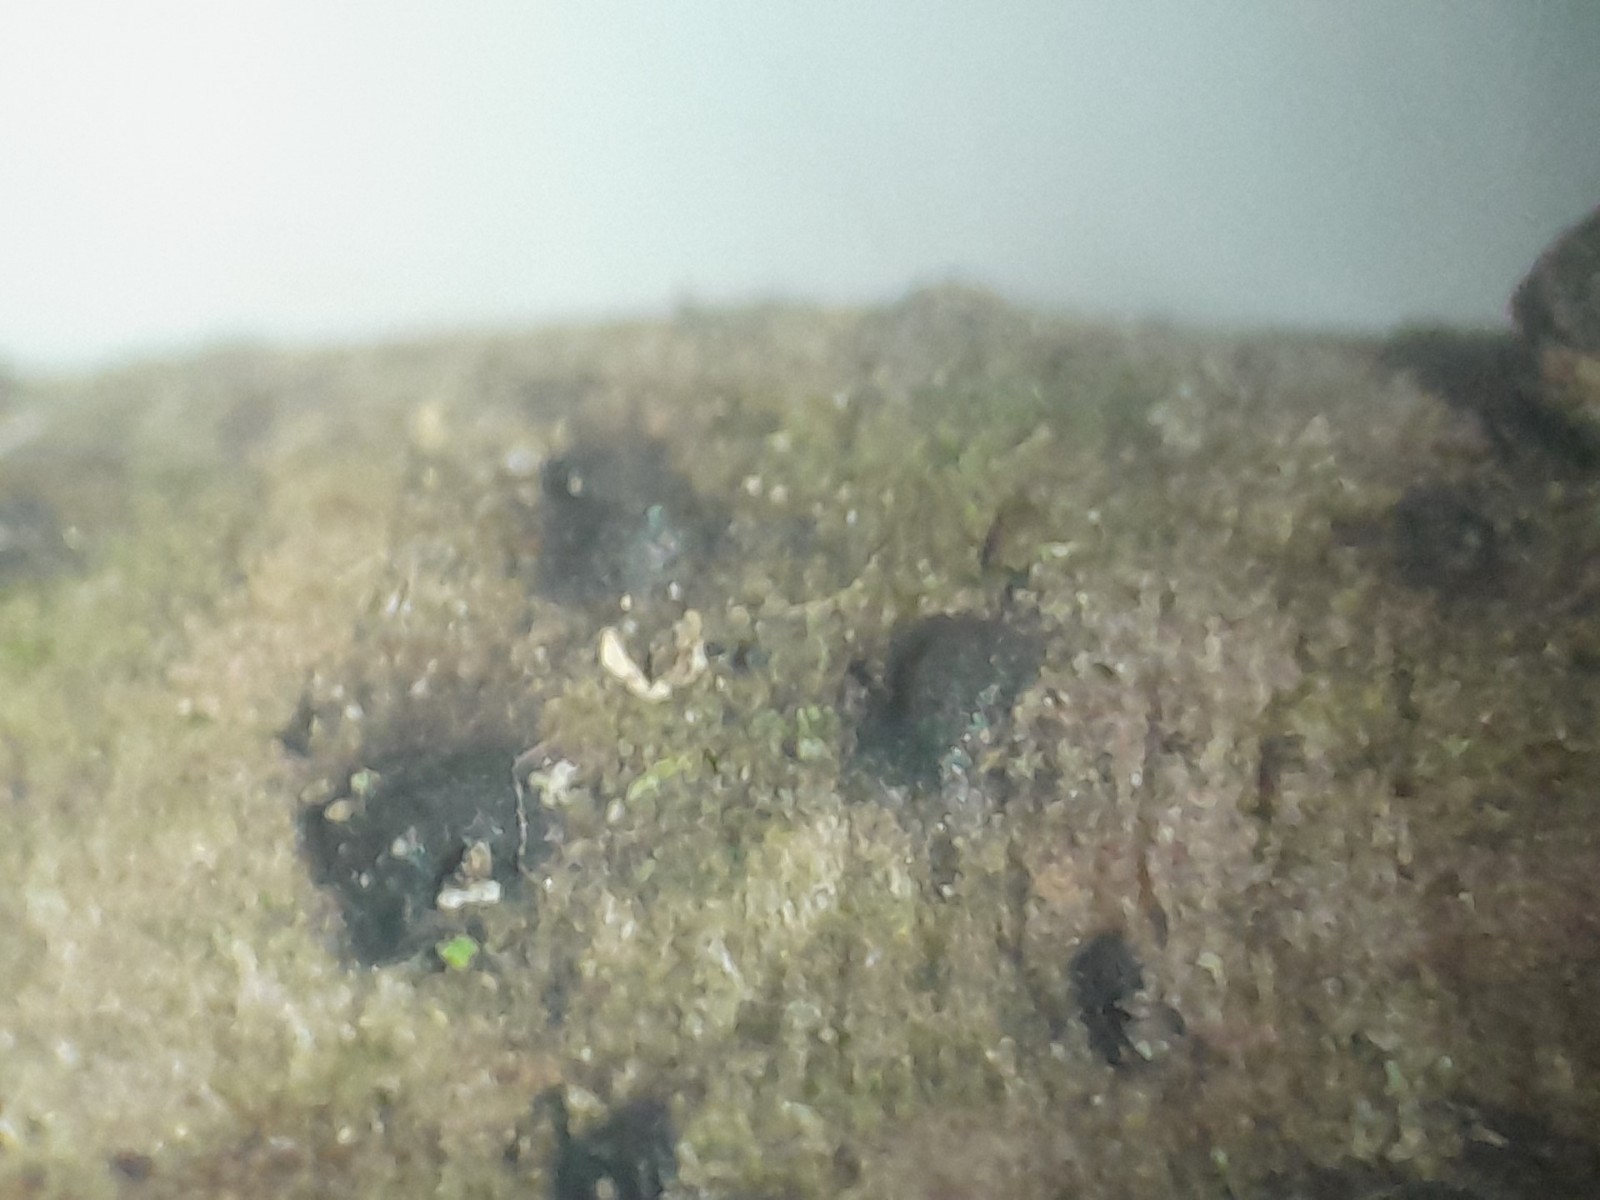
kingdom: Fungi
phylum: Ascomycota
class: Leotiomycetes
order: Helotiales
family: Mollisiaceae
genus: Cheirospora
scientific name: Cheirospora botryospora
